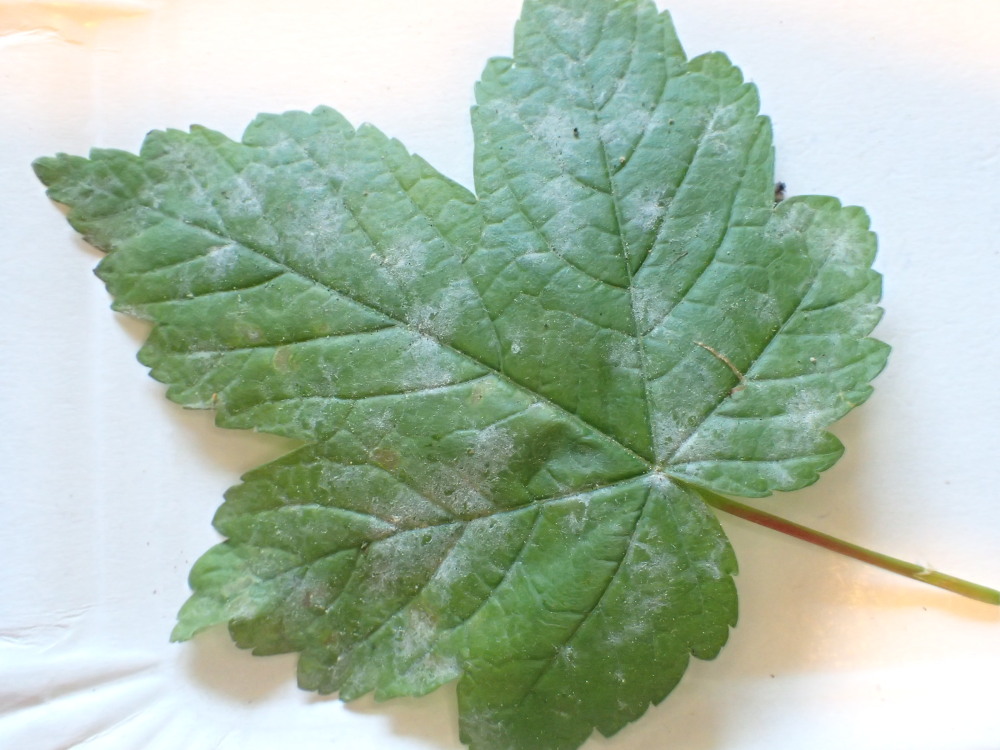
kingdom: Fungi
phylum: Ascomycota
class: Leotiomycetes
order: Helotiales
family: Erysiphaceae
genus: Sawadaea
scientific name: Sawadaea bicornis
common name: Maple mildew
